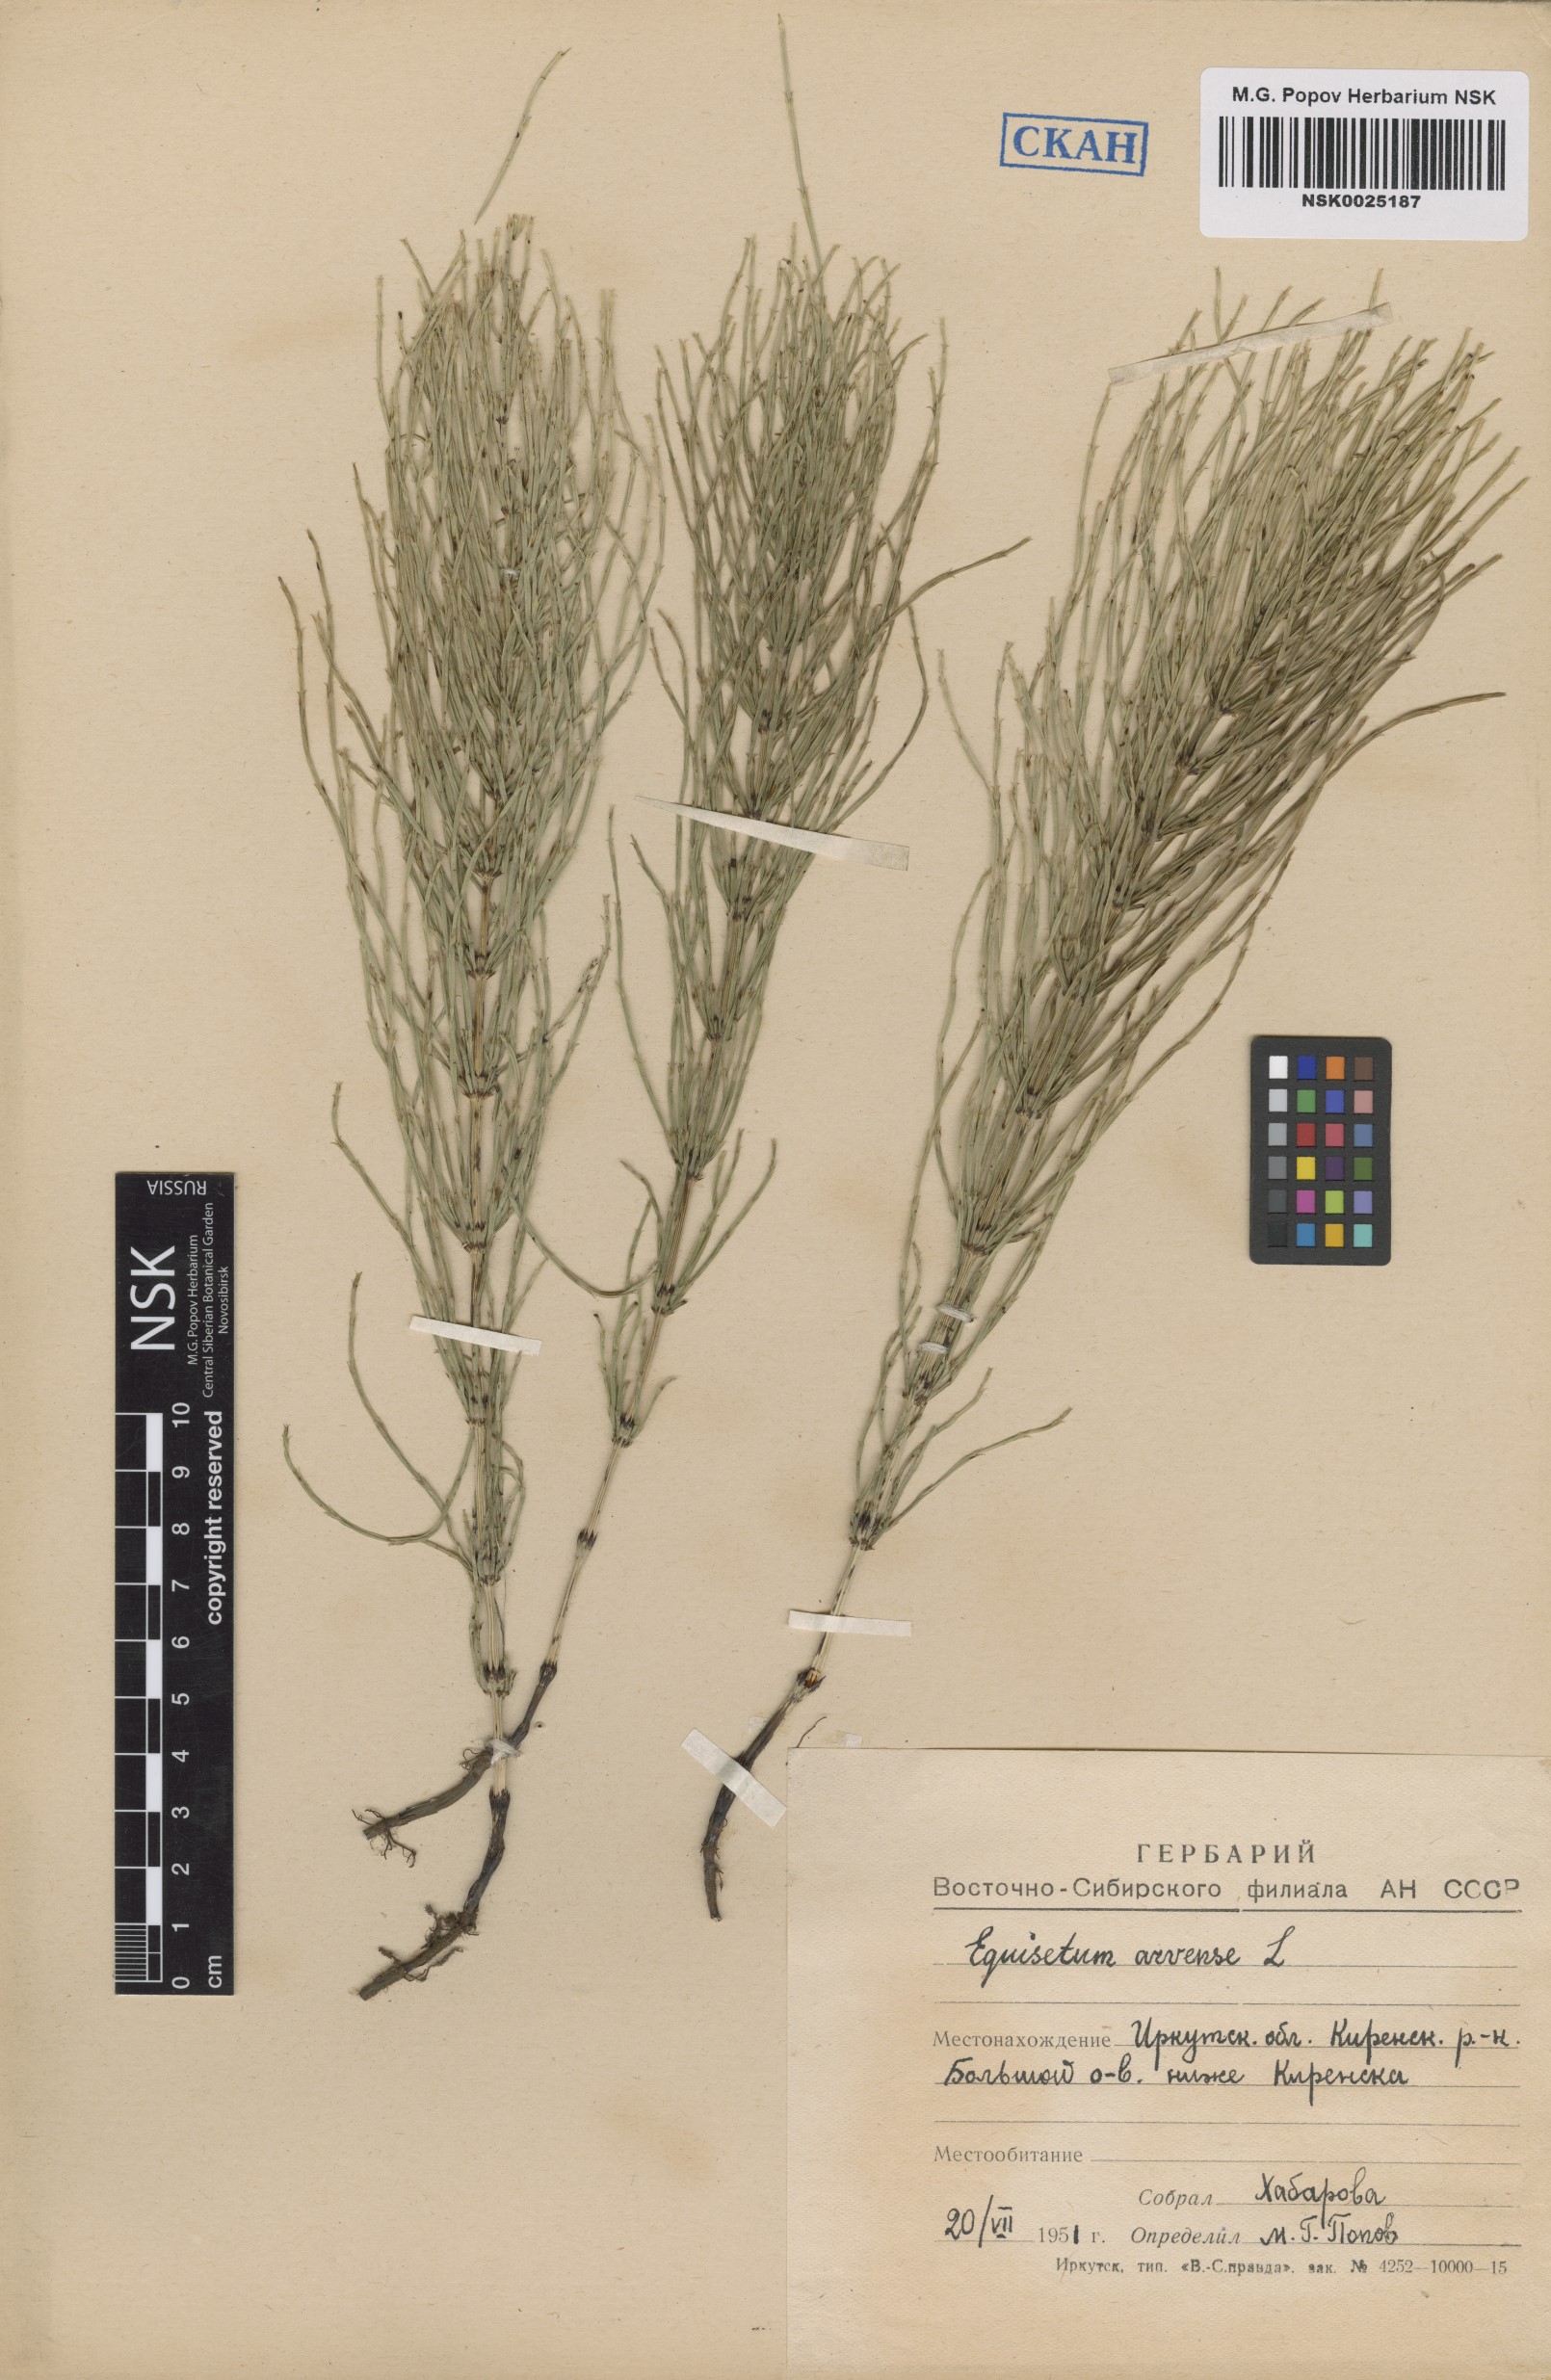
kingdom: Plantae
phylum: Tracheophyta
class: Polypodiopsida
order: Equisetales
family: Equisetaceae
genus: Equisetum
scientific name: Equisetum arvense
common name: Field horsetail
